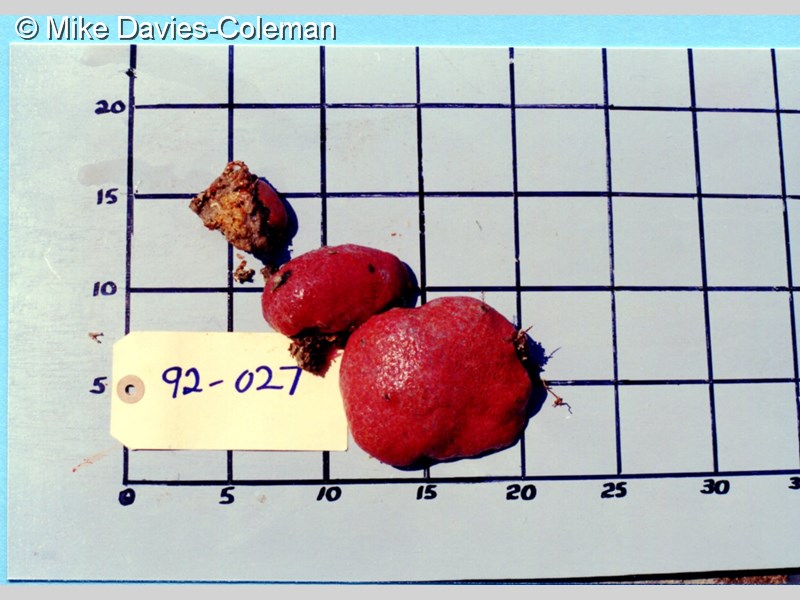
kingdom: Animalia
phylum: Chordata
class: Ascidiacea
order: Aplousobranchia
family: Polyclinidae
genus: Aplidium
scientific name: Aplidium flavolineatum
